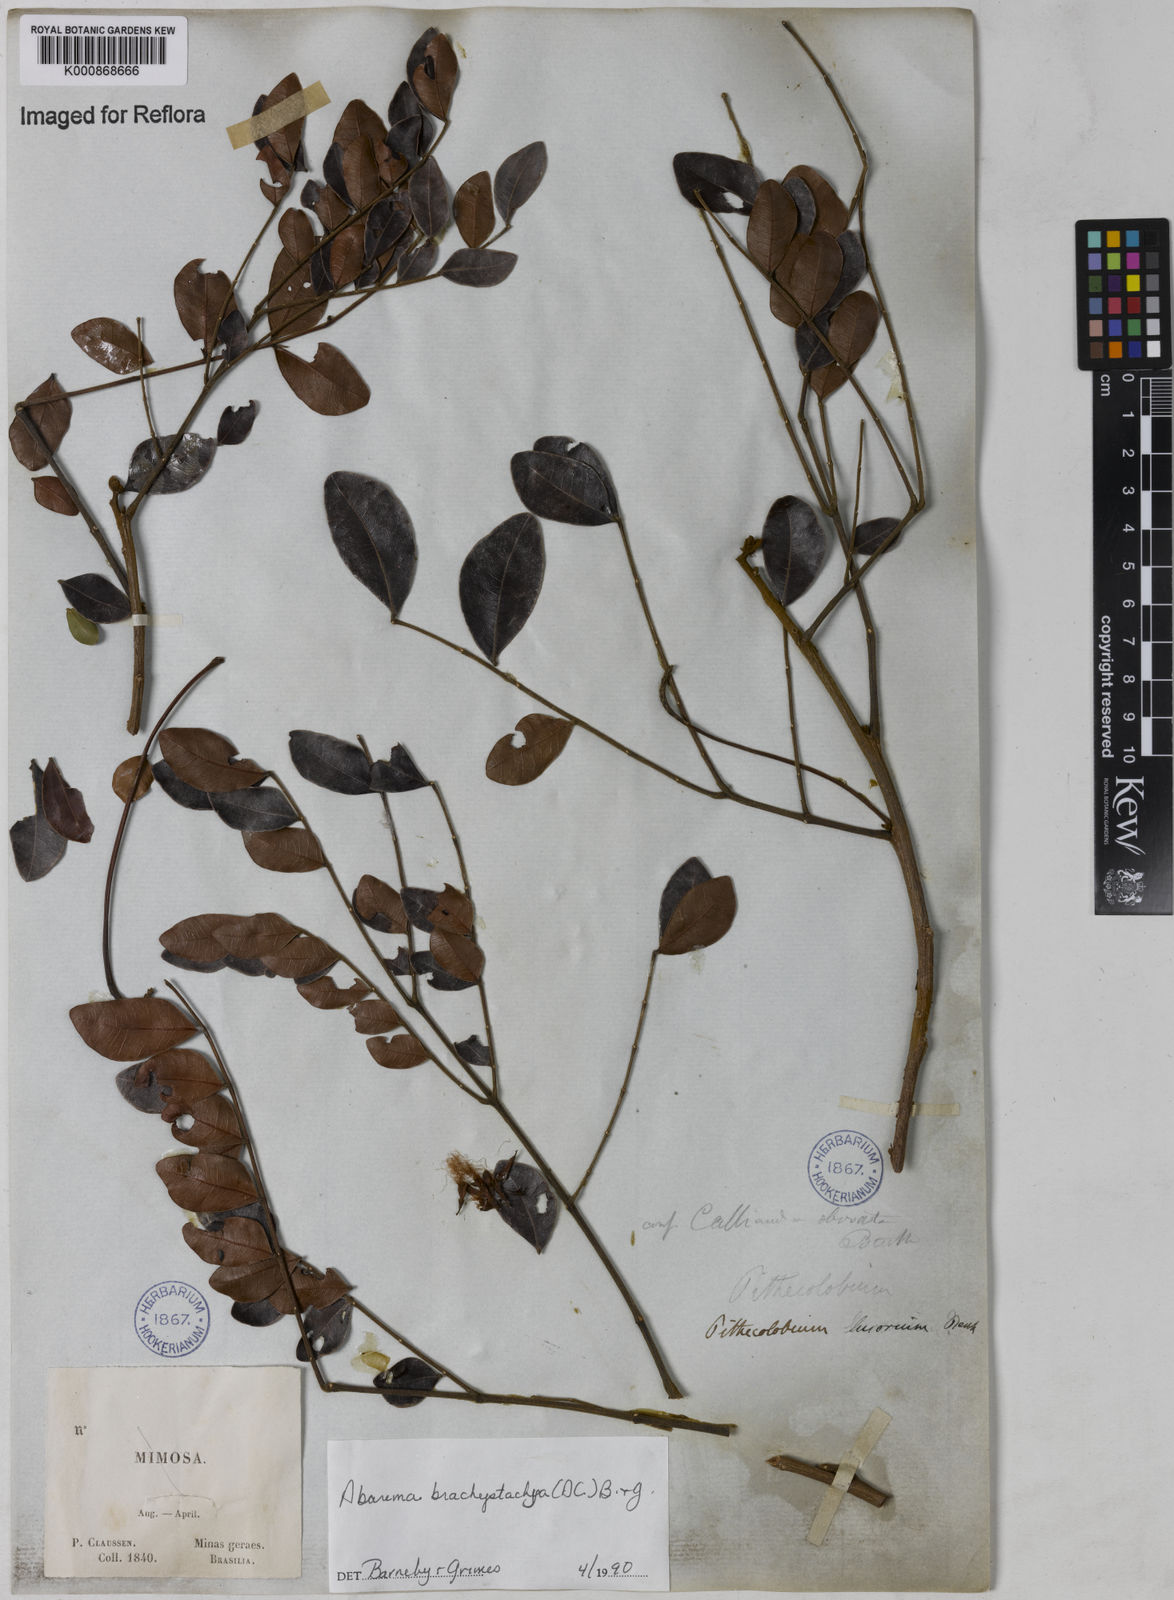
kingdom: Plantae
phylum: Tracheophyta
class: Magnoliopsida
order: Fabales
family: Fabaceae
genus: Abarema
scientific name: Abarema
